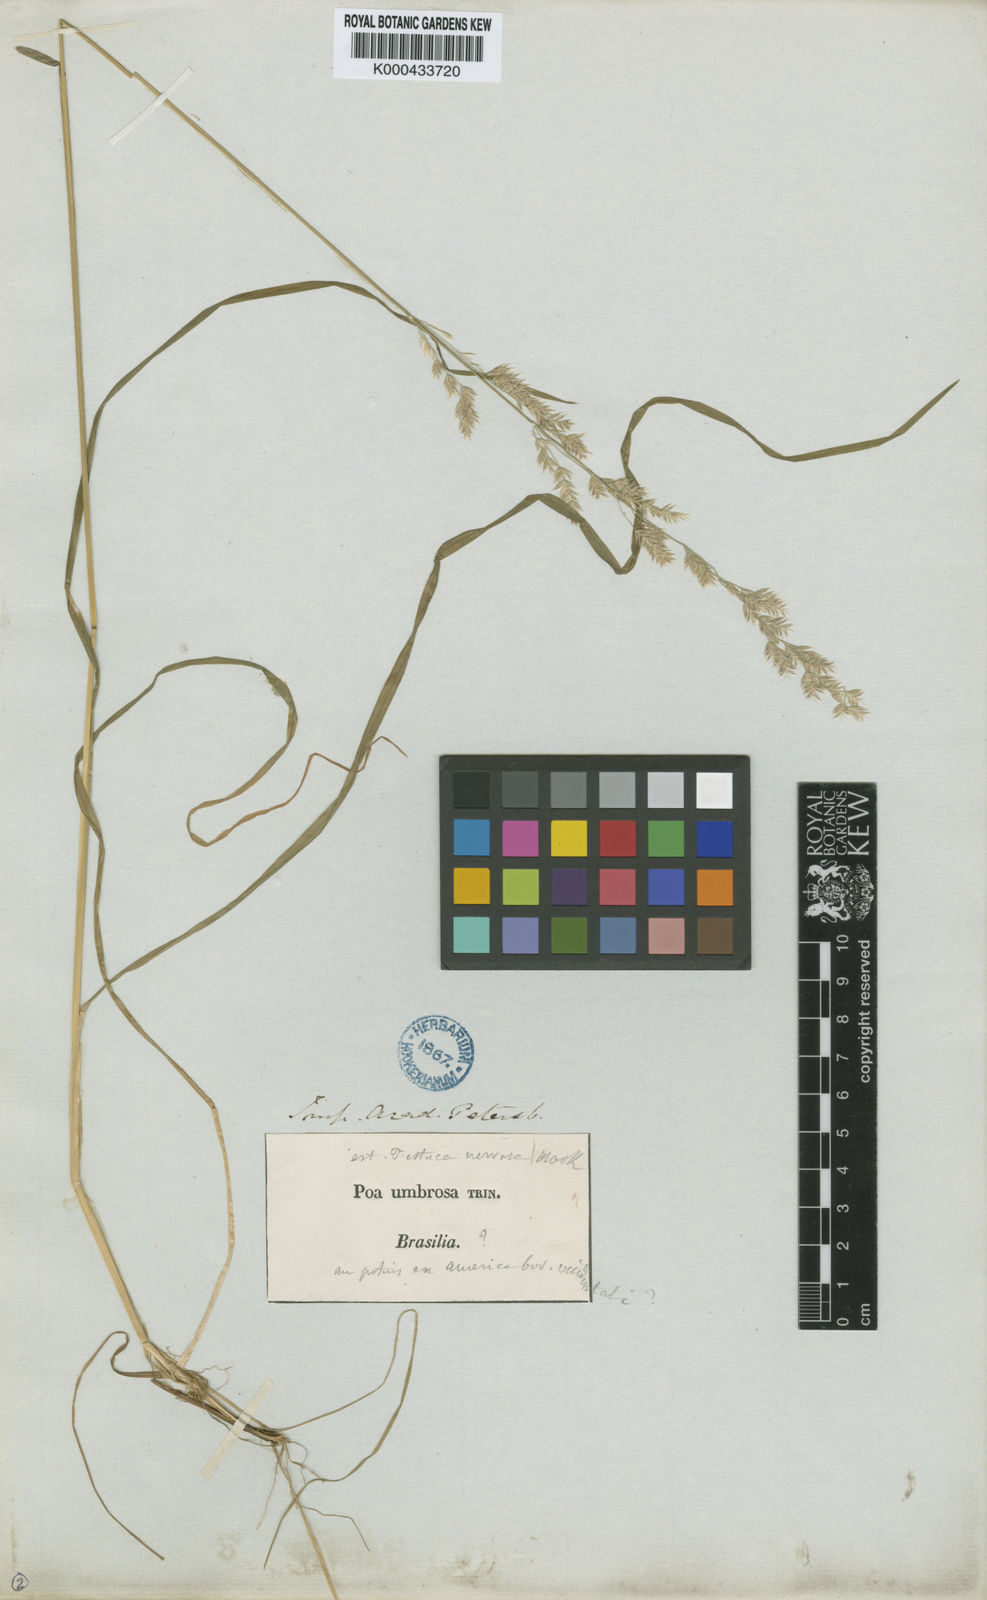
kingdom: Plantae
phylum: Tracheophyta
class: Liliopsida
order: Poales
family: Poaceae
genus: Poa
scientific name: Poa umbrosa
